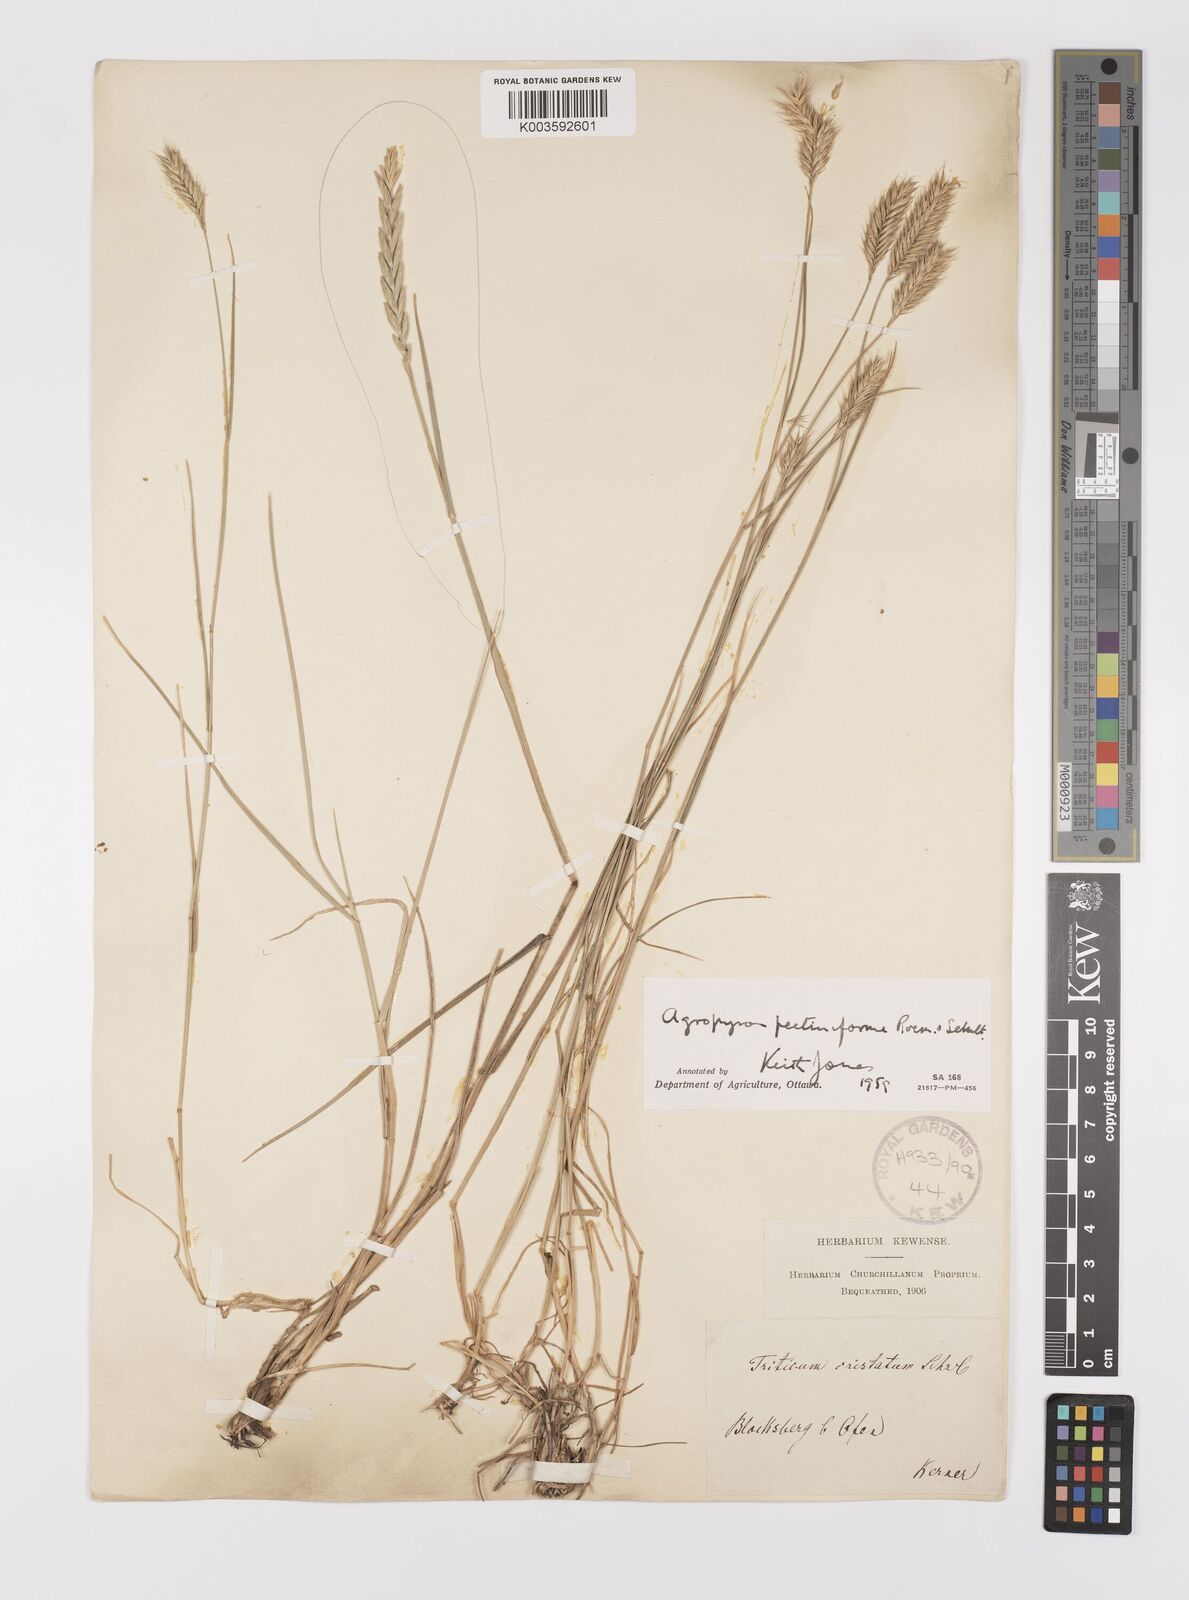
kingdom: Plantae
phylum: Tracheophyta
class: Liliopsida
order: Poales
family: Poaceae
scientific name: Poaceae
